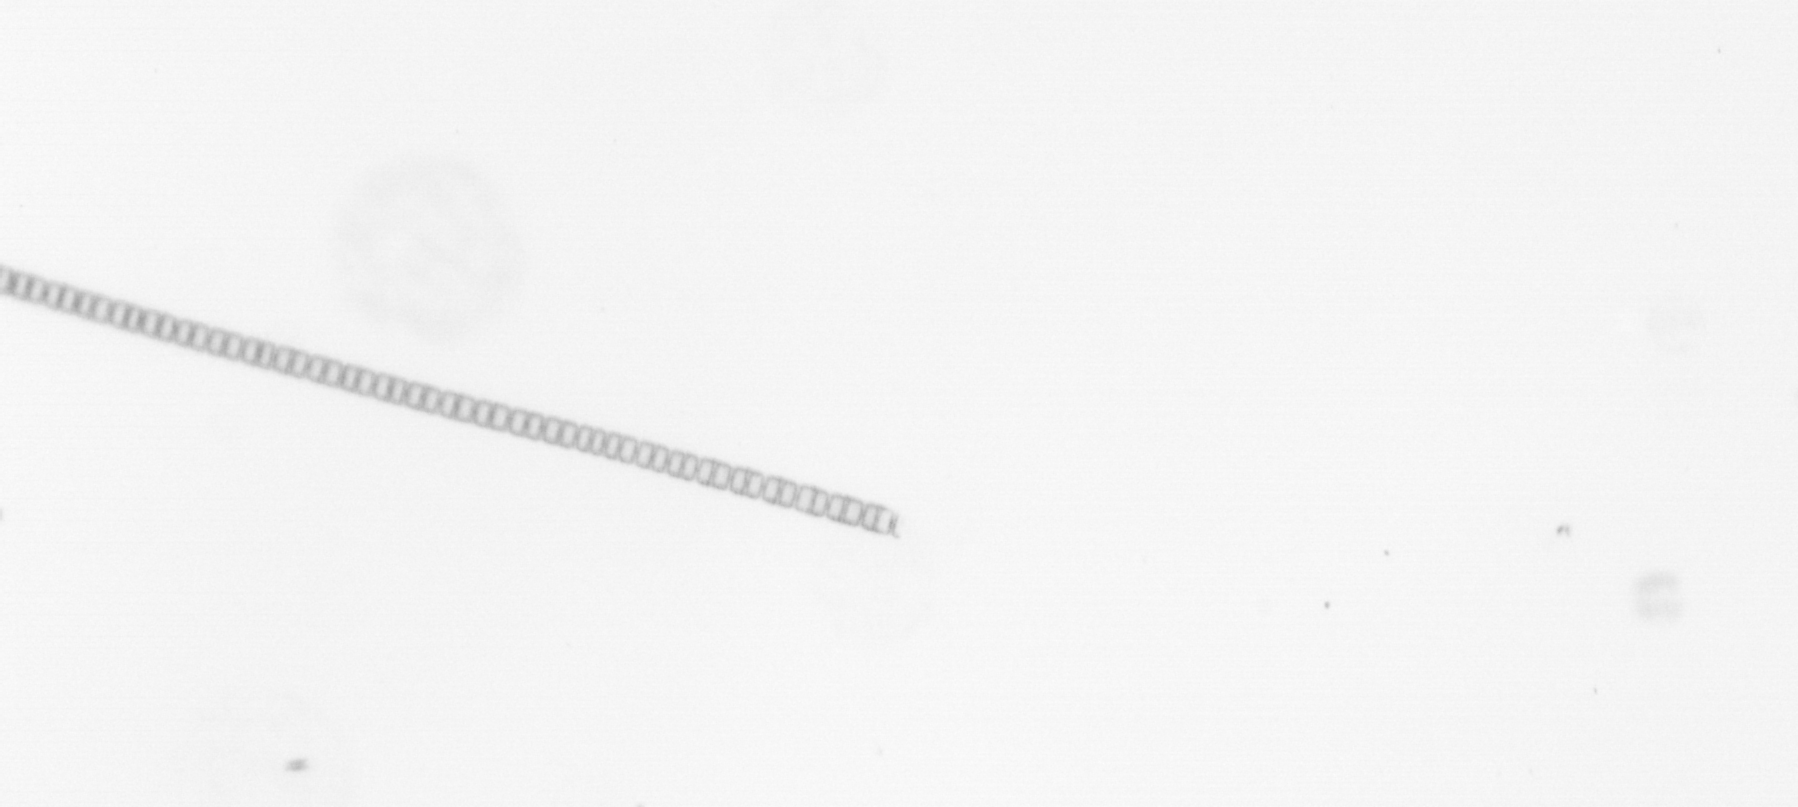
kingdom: Chromista
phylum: Ochrophyta
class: Bacillariophyceae
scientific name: Bacillariophyceae
